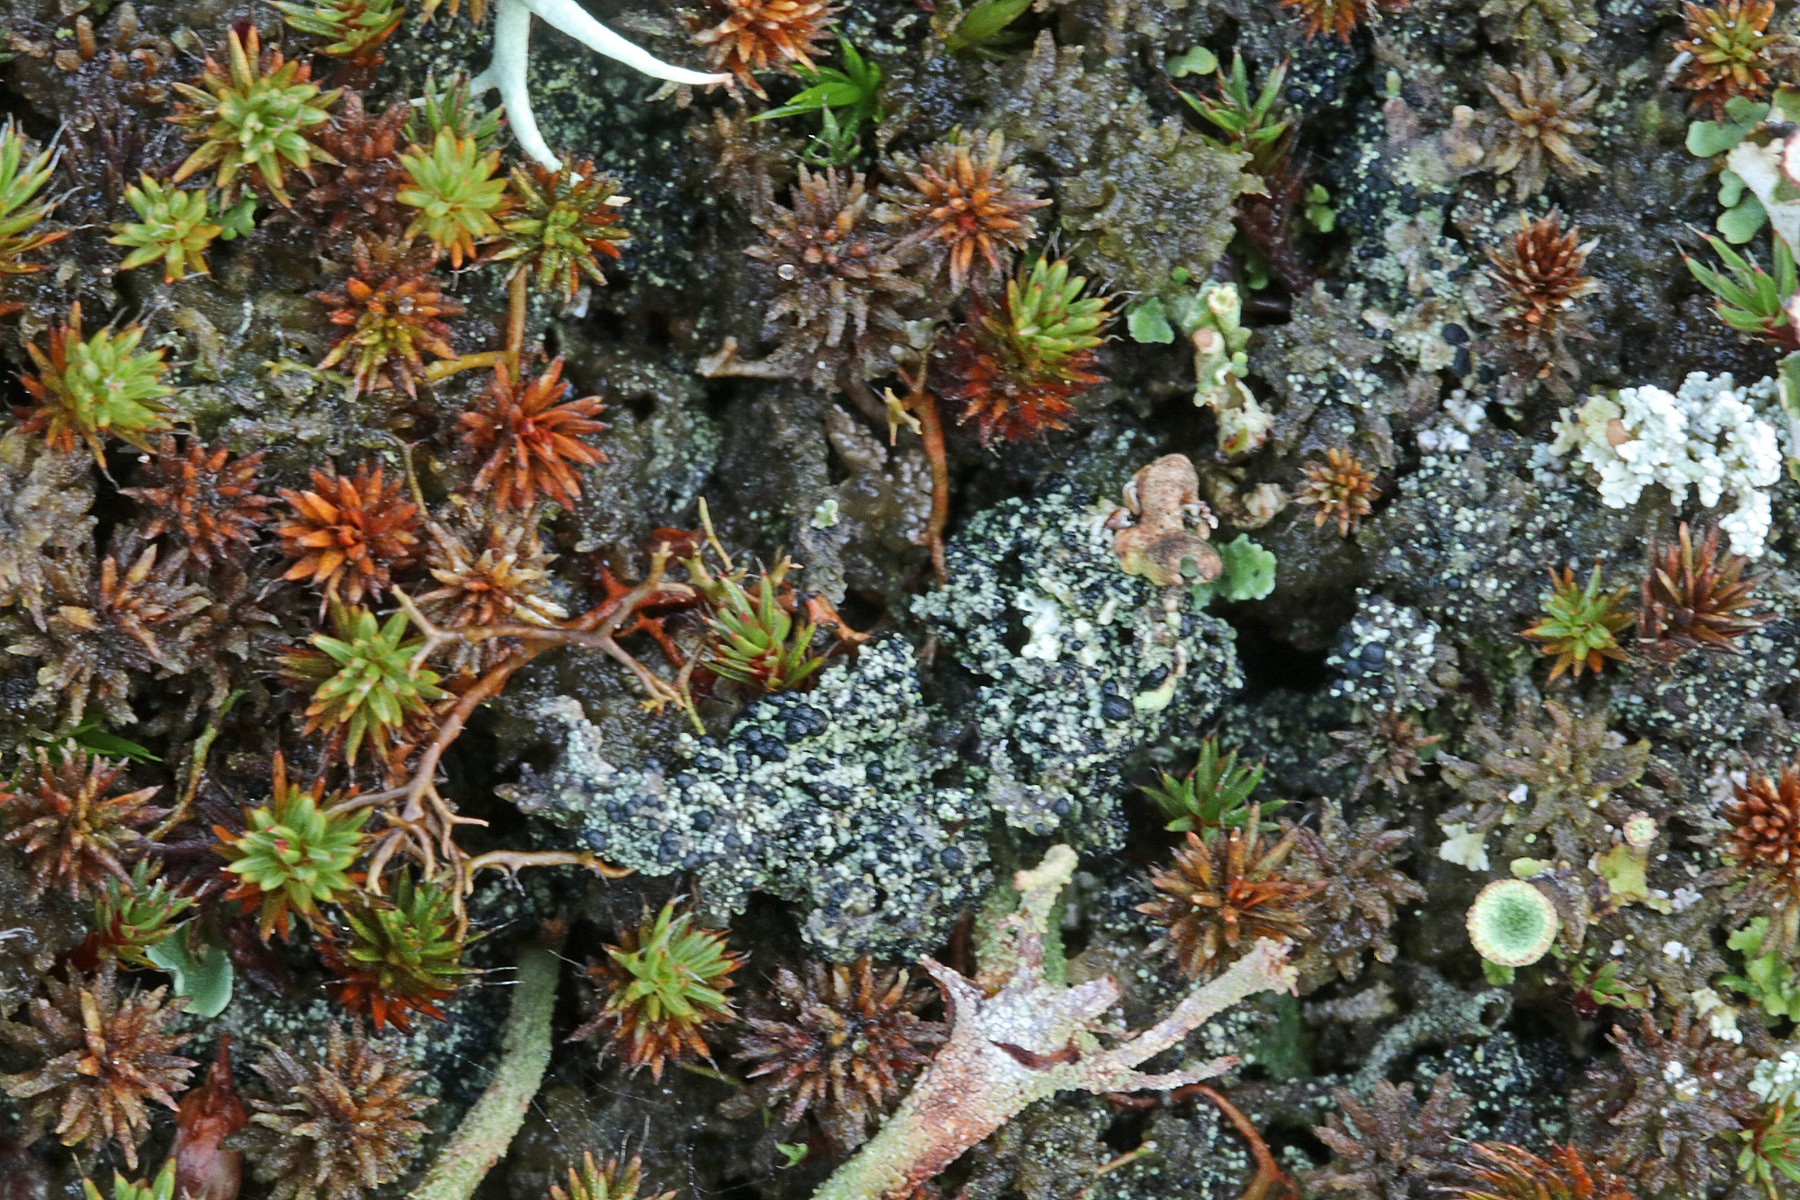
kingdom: Fungi
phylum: Ascomycota
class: Lecanoromycetes
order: Lecanorales
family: Byssolomataceae
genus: Micarea
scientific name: Micarea lignaria
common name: tørve-knaplav
